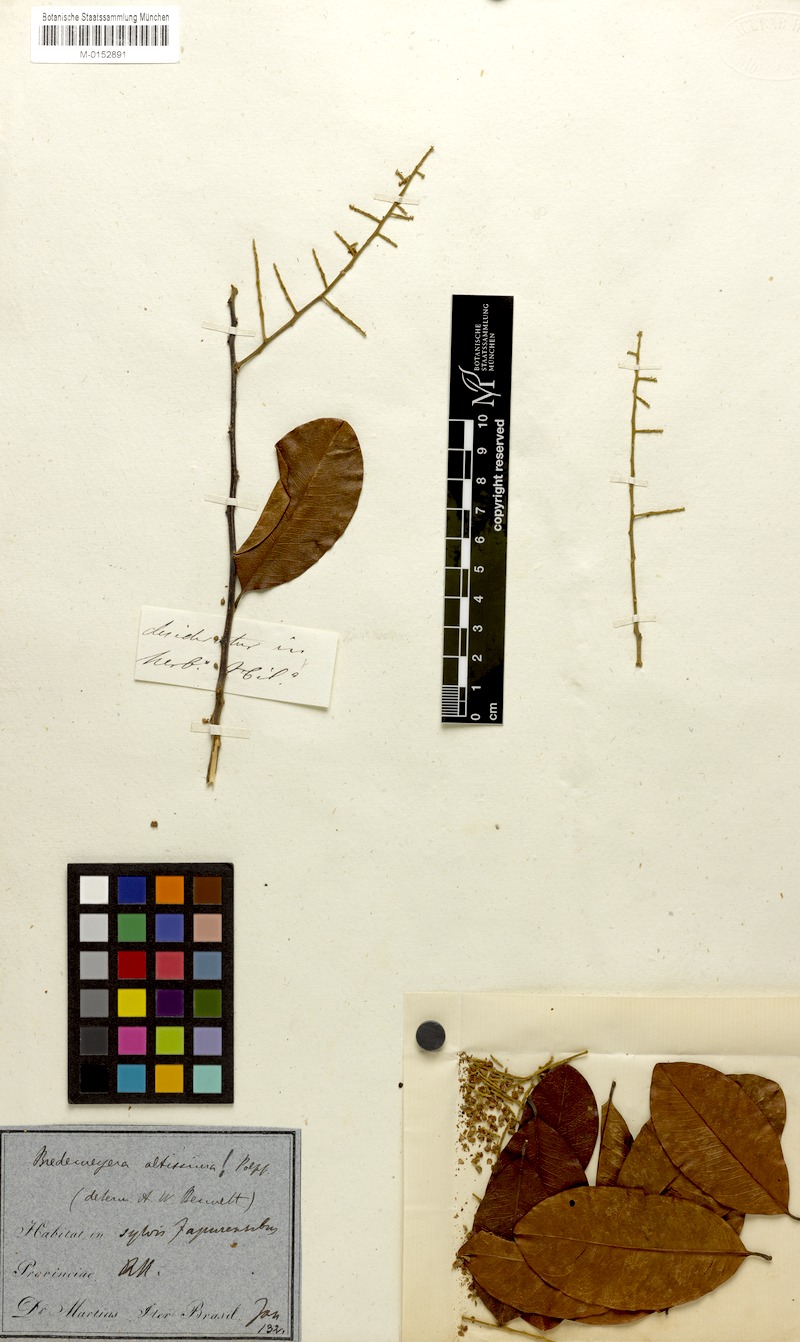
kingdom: Plantae
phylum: Tracheophyta
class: Magnoliopsida
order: Fabales
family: Polygalaceae
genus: Bredemeyera
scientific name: Bredemeyera divaricata
